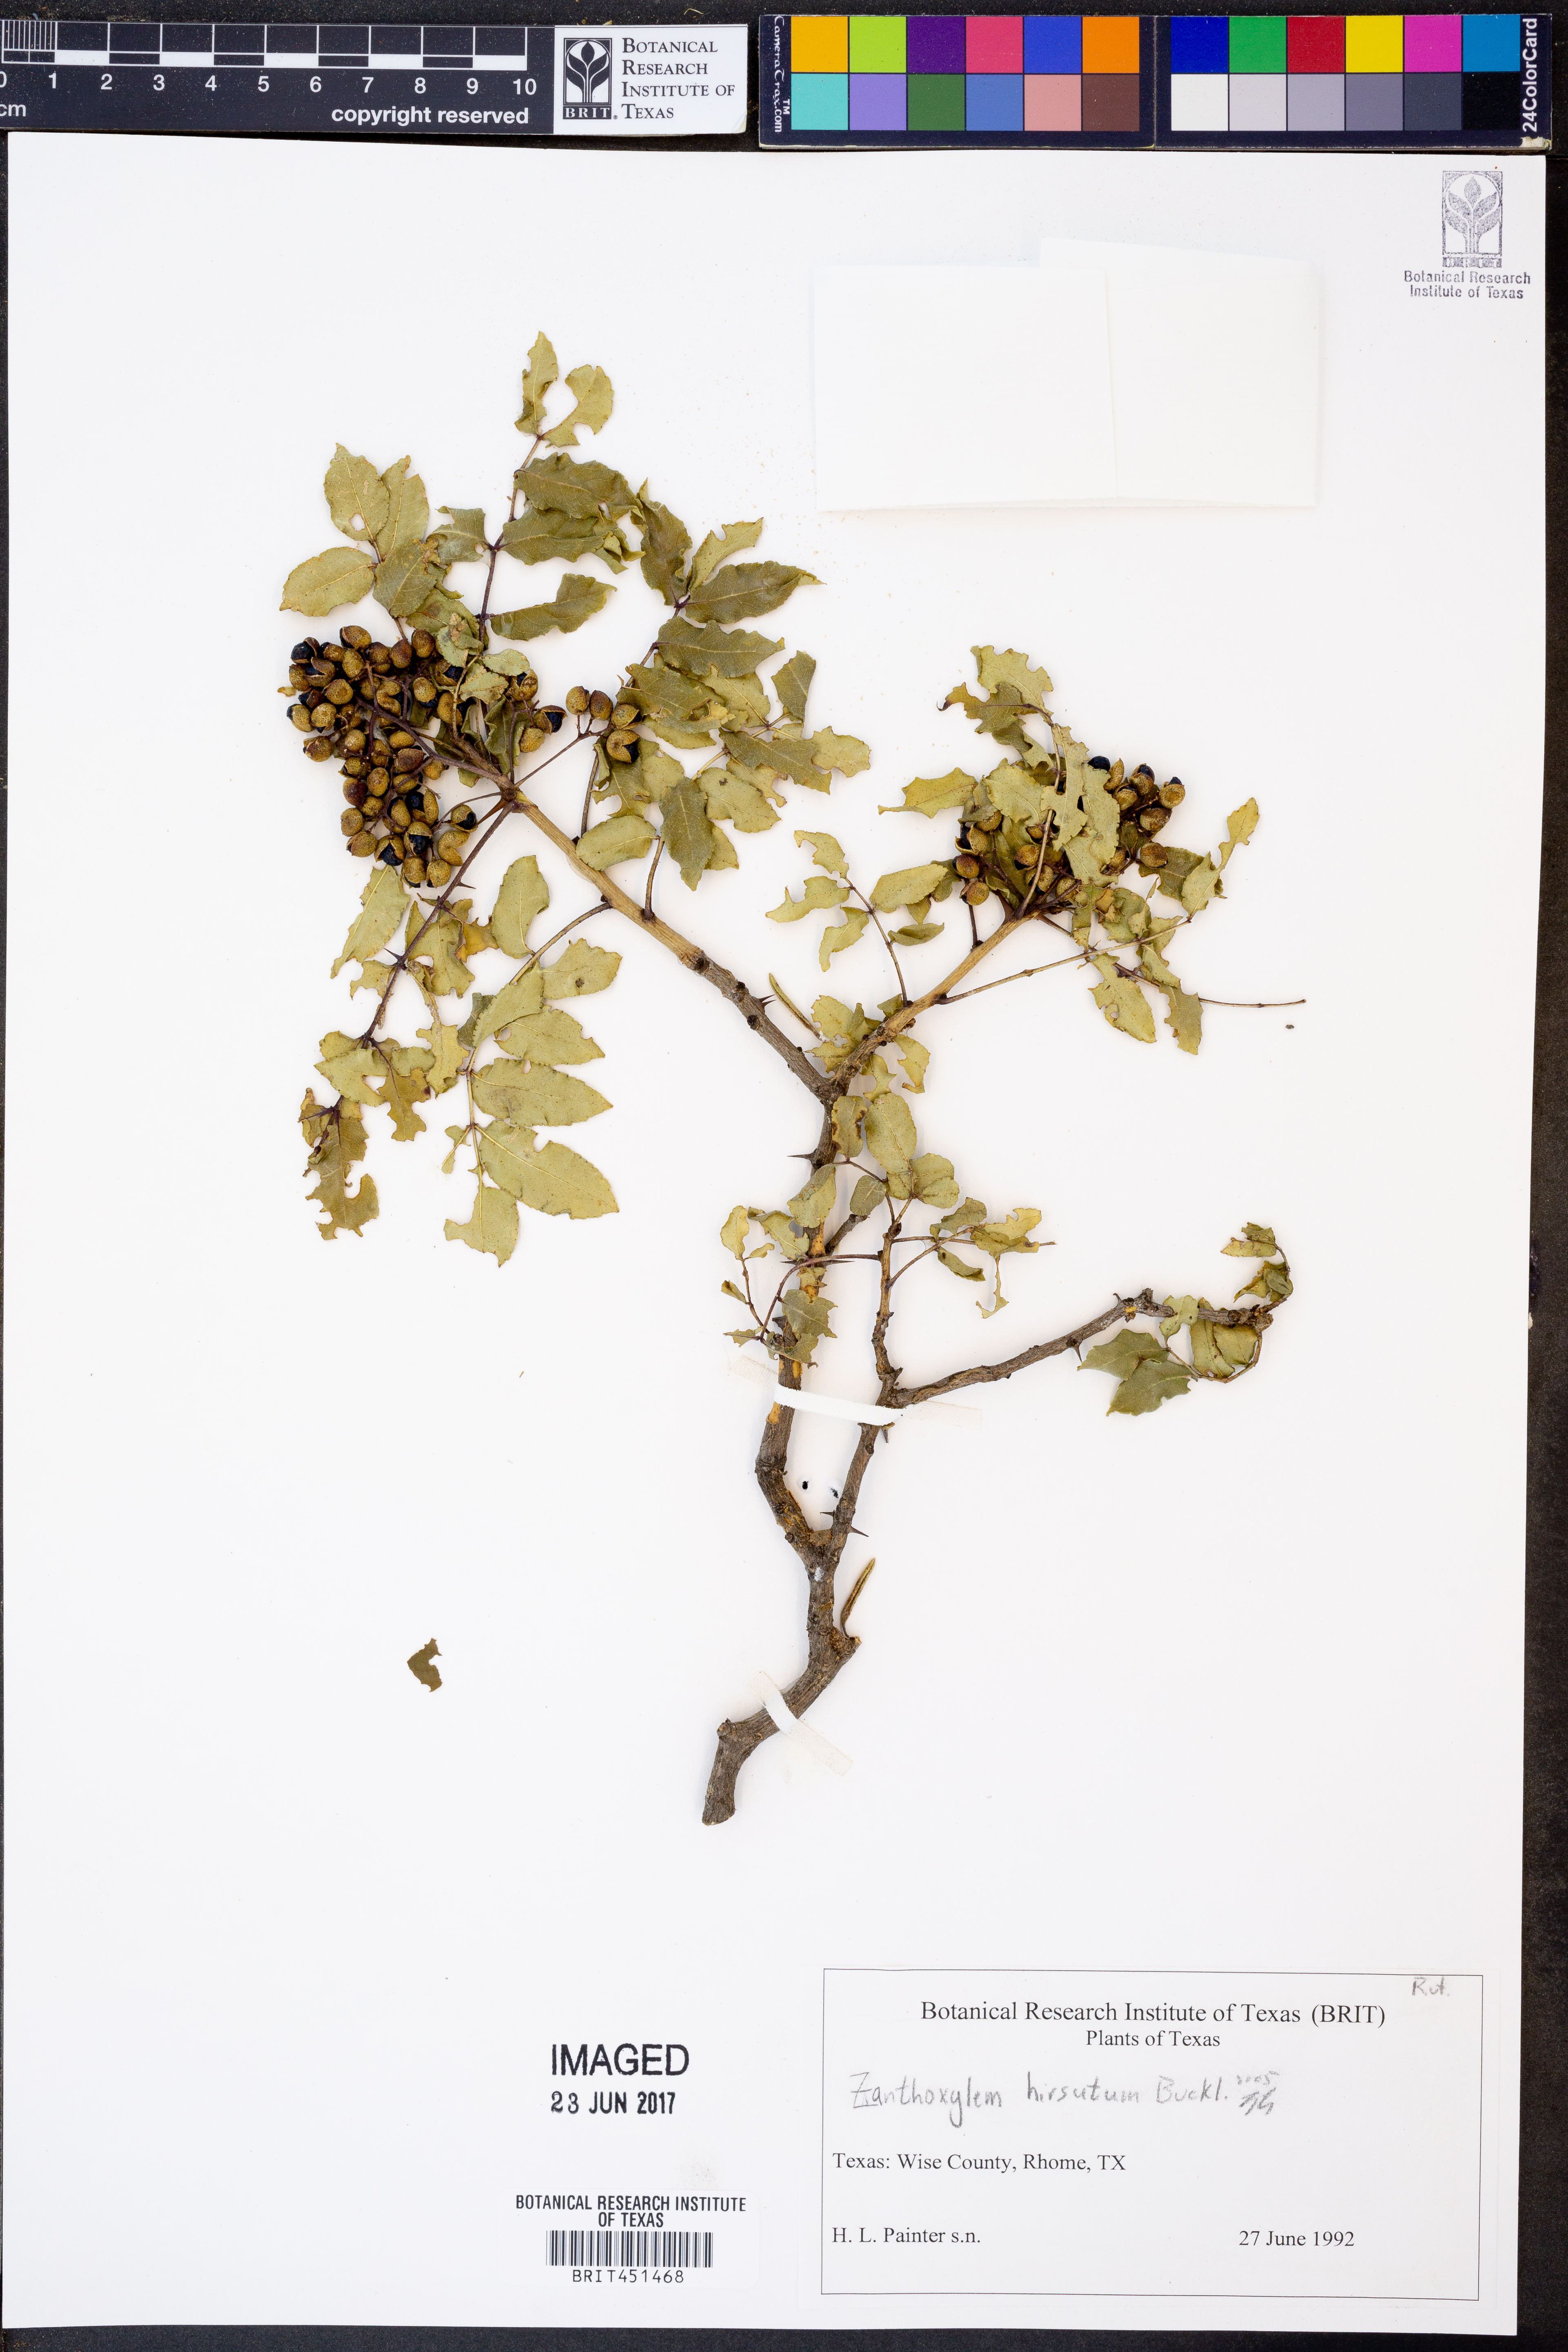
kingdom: Plantae
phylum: Tracheophyta
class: Magnoliopsida
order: Sapindales
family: Rutaceae
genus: Zanthoxylum
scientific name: Zanthoxylum clava-herculis
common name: Hercules'-club
